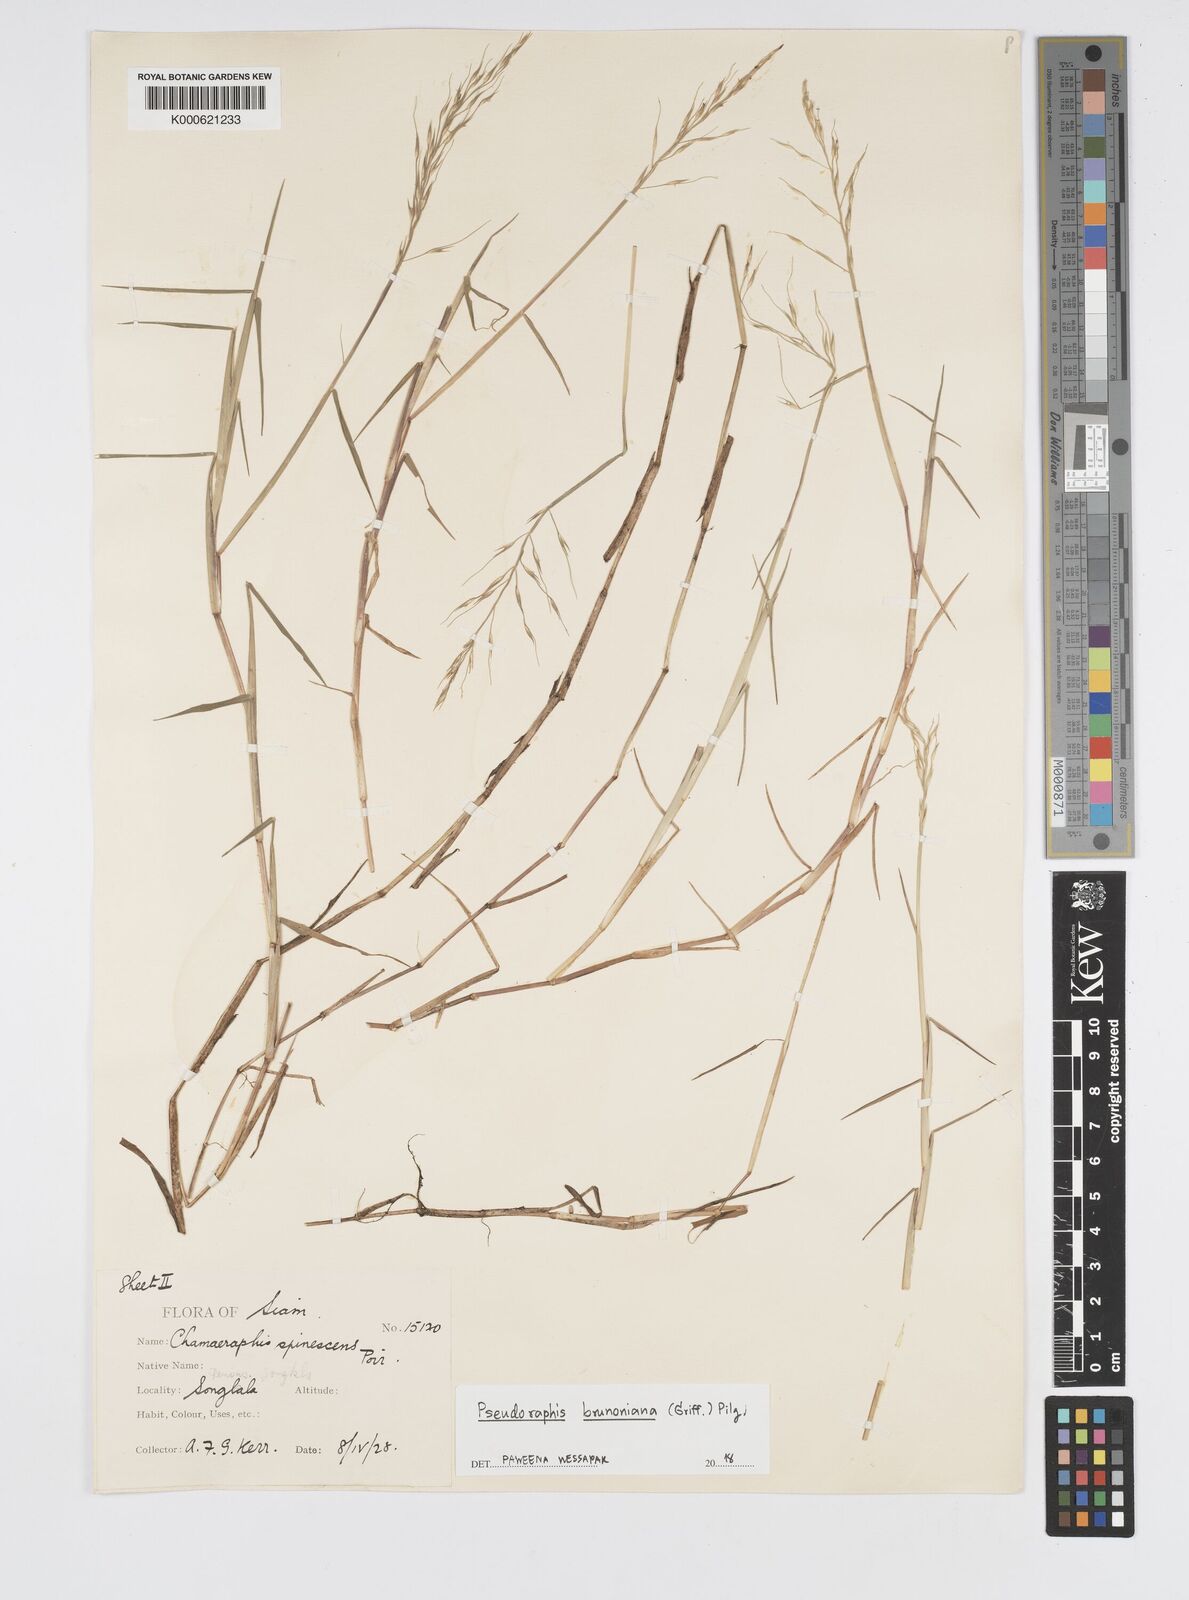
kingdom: Plantae
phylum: Tracheophyta
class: Liliopsida
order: Poales
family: Poaceae
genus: Pseudoraphis
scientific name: Pseudoraphis brunoniana
